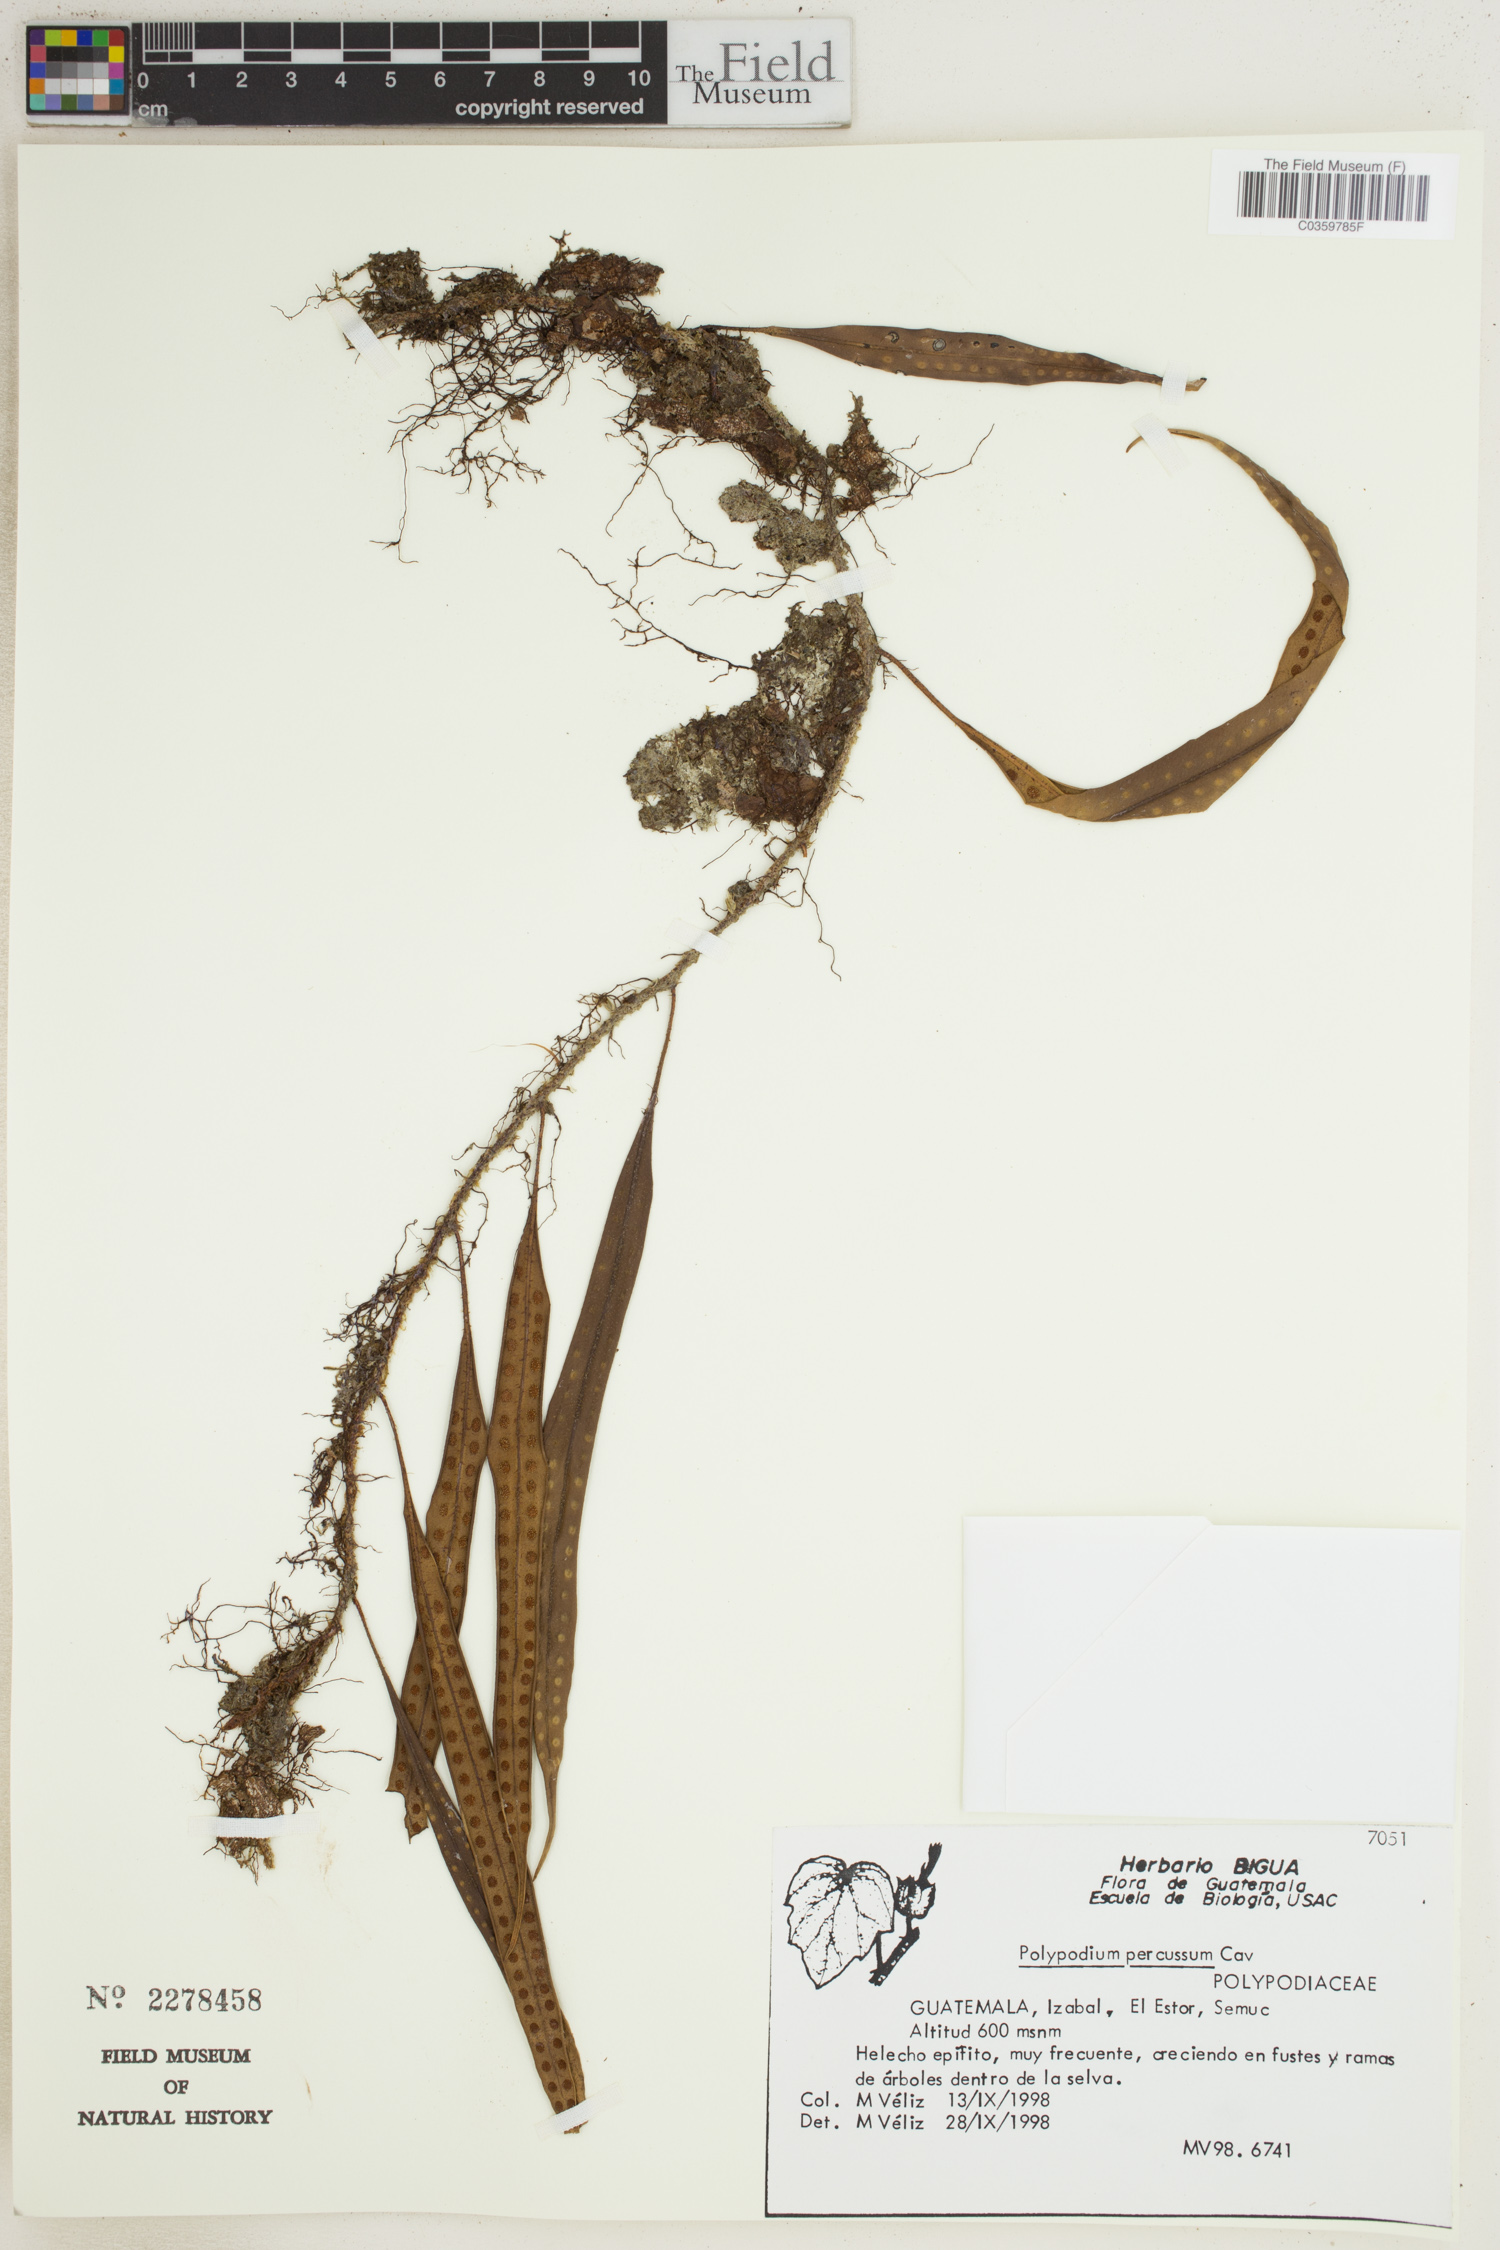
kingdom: Plantae
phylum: Tracheophyta
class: Polypodiopsida
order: Polypodiales
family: Polypodiaceae
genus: Microgramma
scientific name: Microgramma percussa
